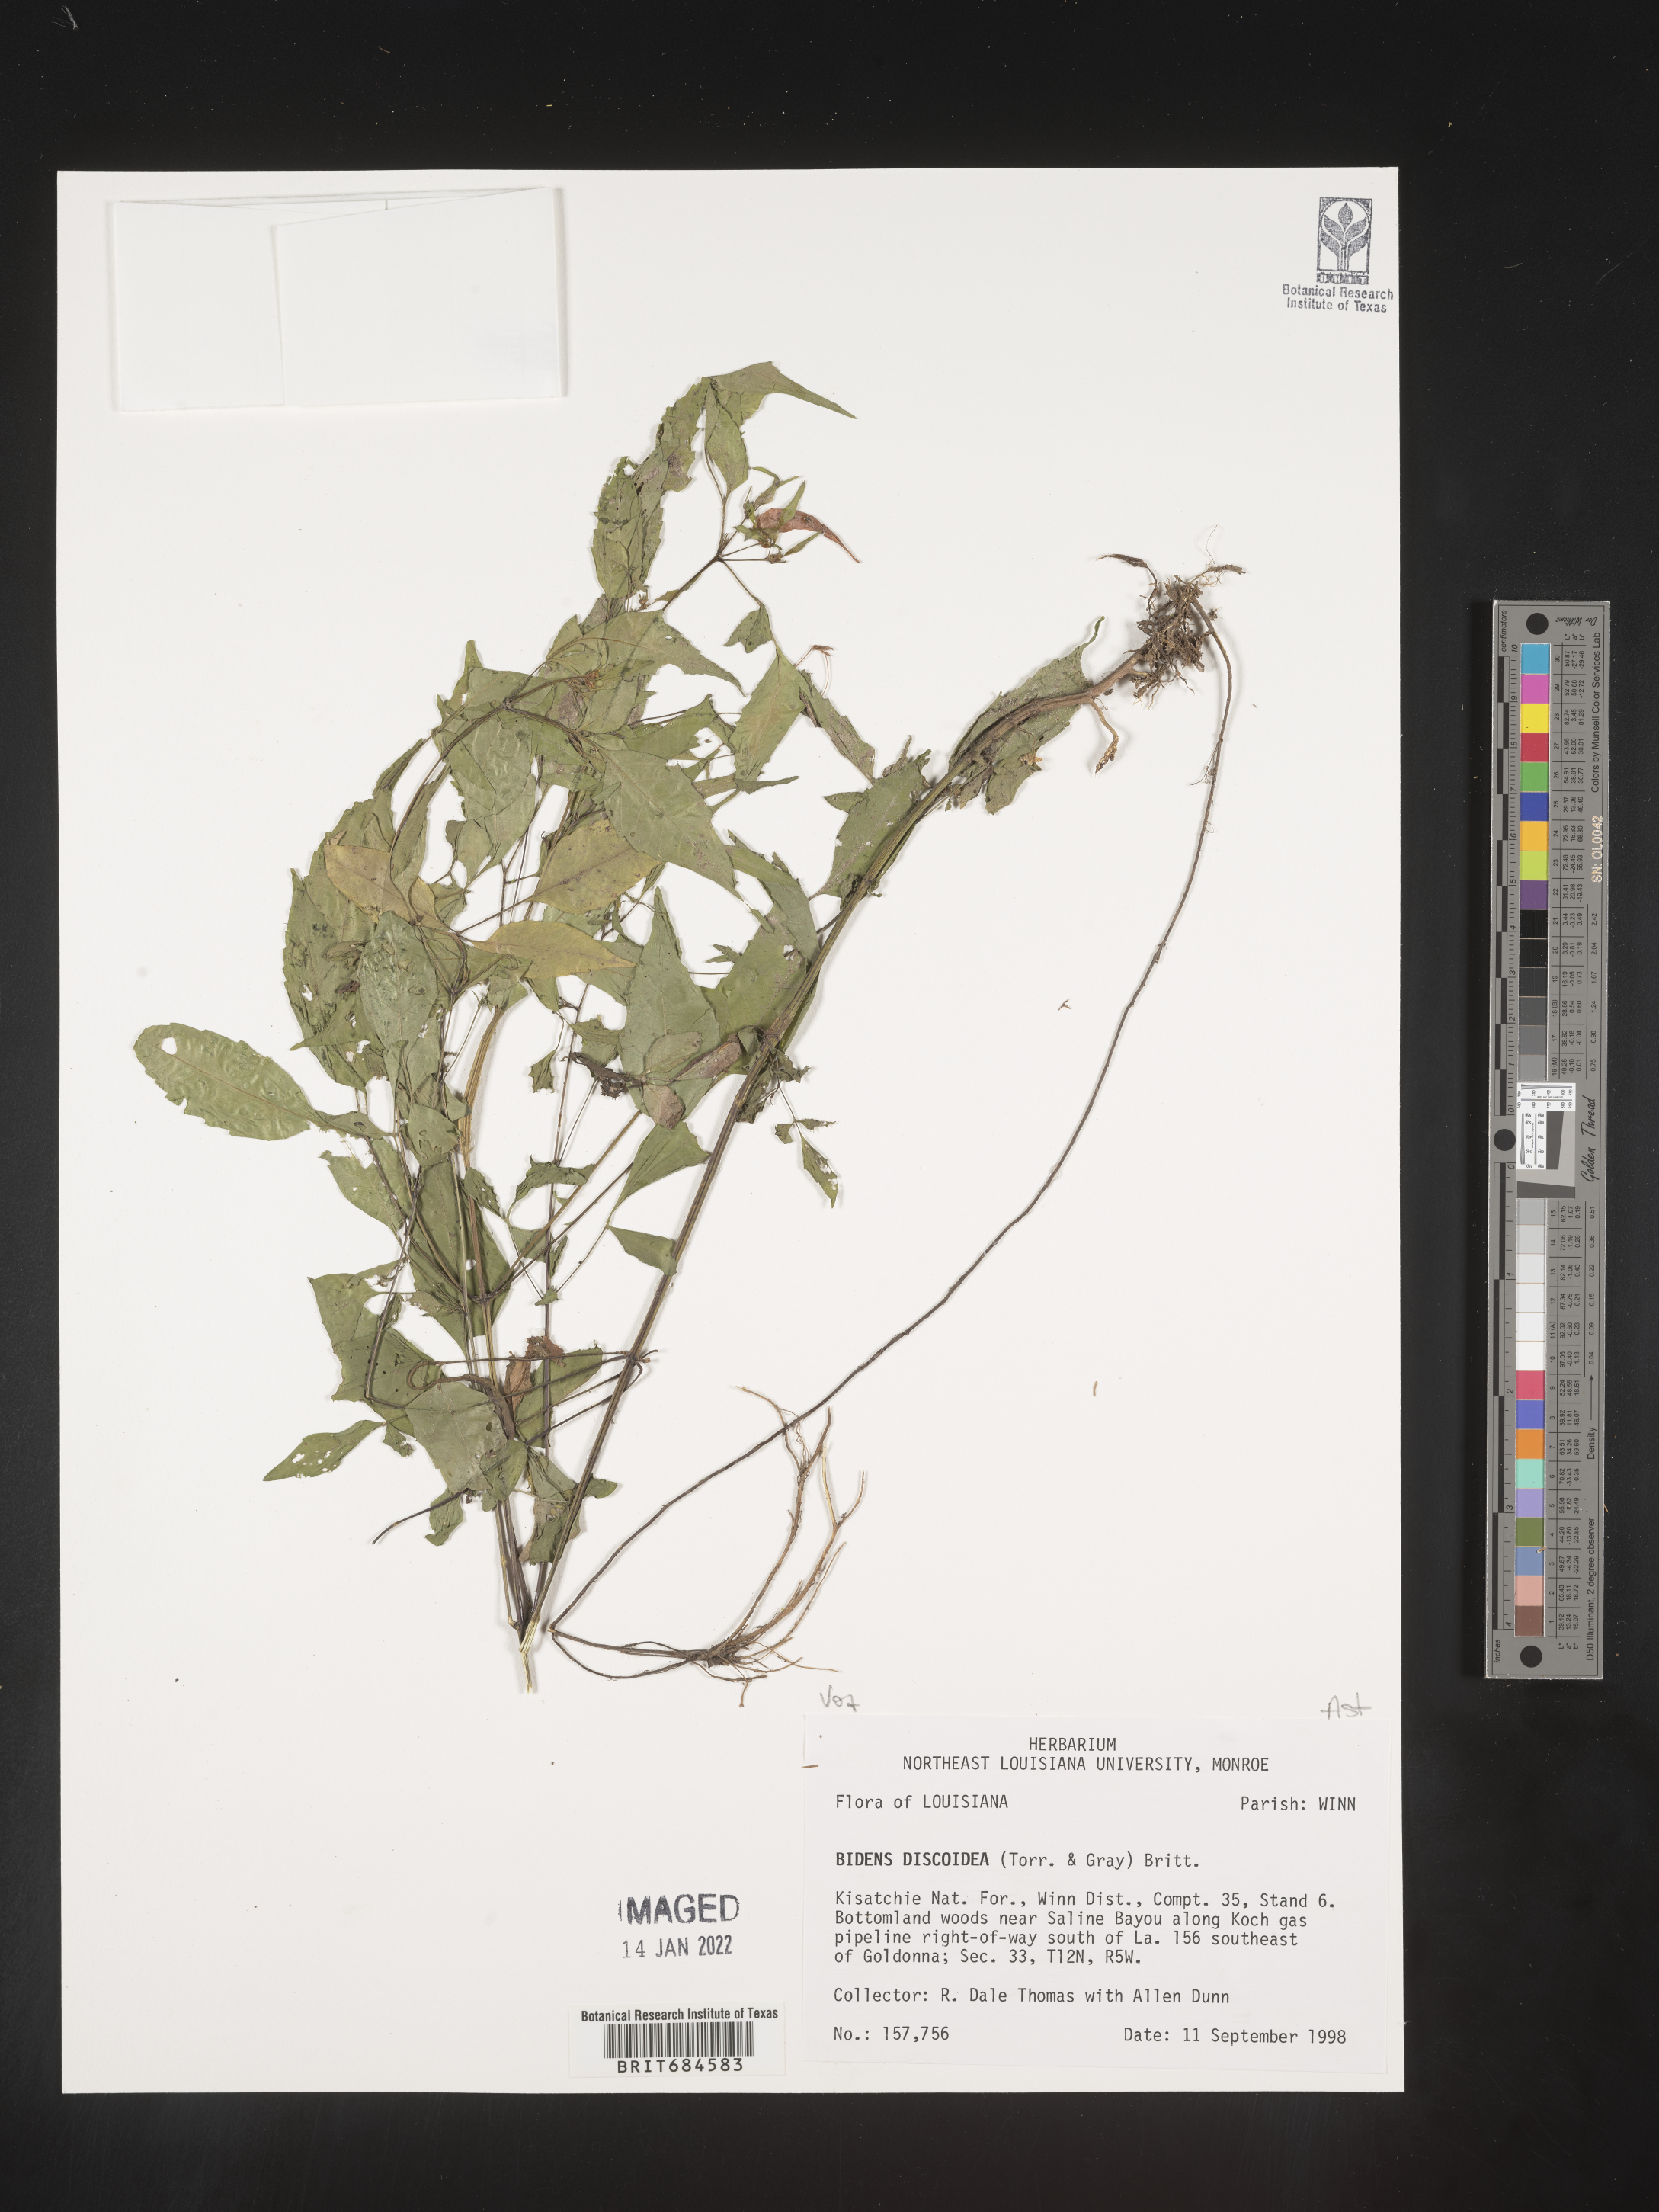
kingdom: Plantae
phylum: Tracheophyta
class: Magnoliopsida
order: Asterales
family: Asteraceae
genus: Bidens
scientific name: Bidens discoidea
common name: Discoide beggarticks
